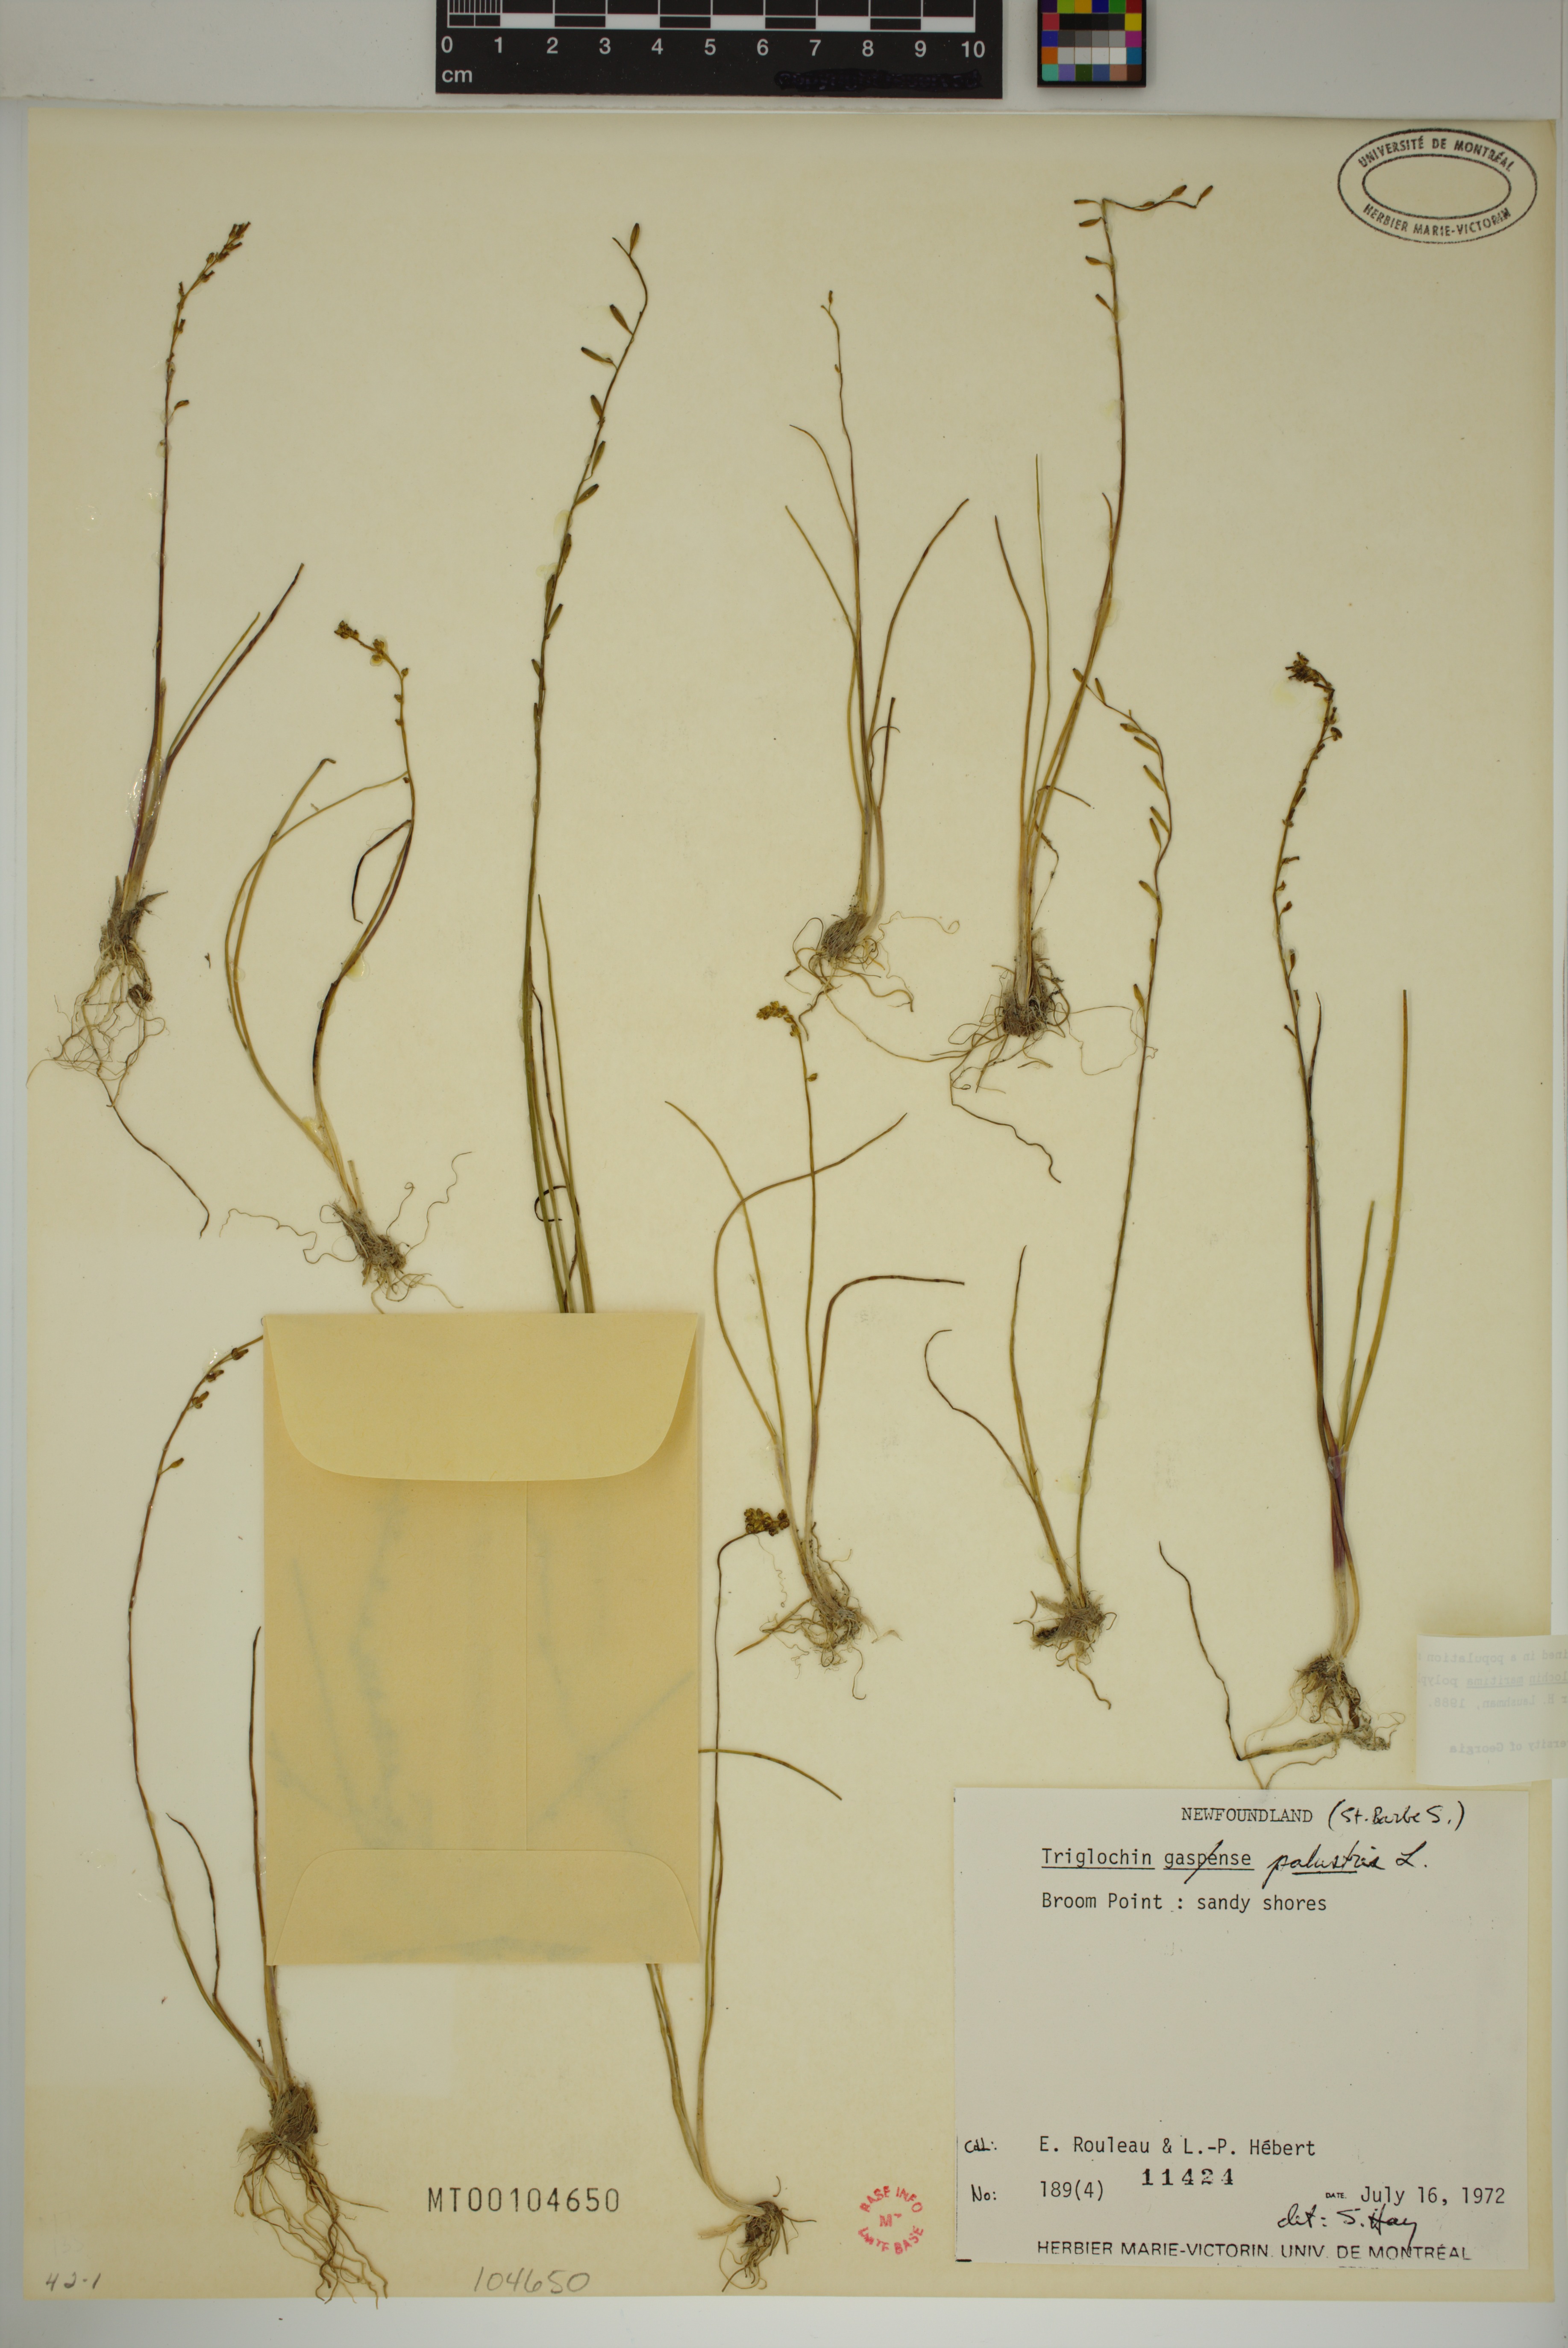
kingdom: Plantae
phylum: Tracheophyta
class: Liliopsida
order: Alismatales
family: Juncaginaceae
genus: Triglochin
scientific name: Triglochin palustris
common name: Marsh arrowgrass
